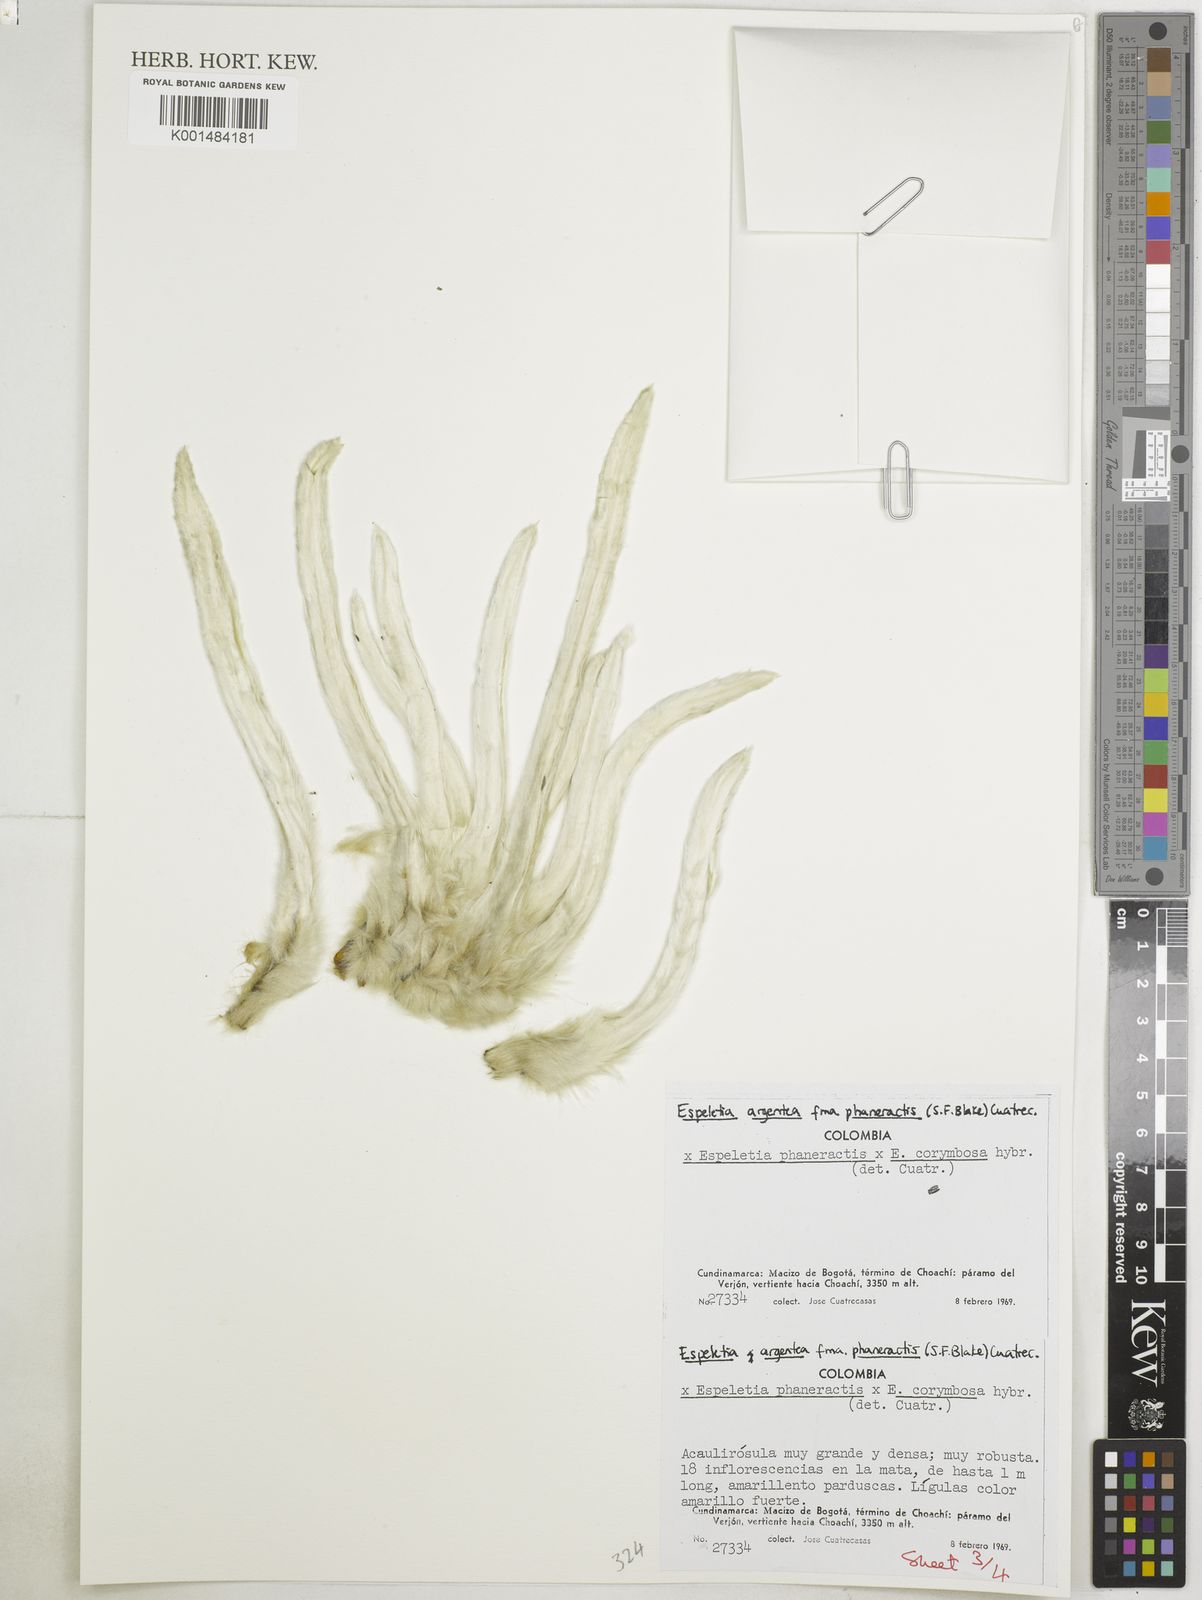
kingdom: Plantae
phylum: Tracheophyta
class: Magnoliopsida
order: Asterales
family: Asteraceae
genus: Espeletia
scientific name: Espeletia argentea
